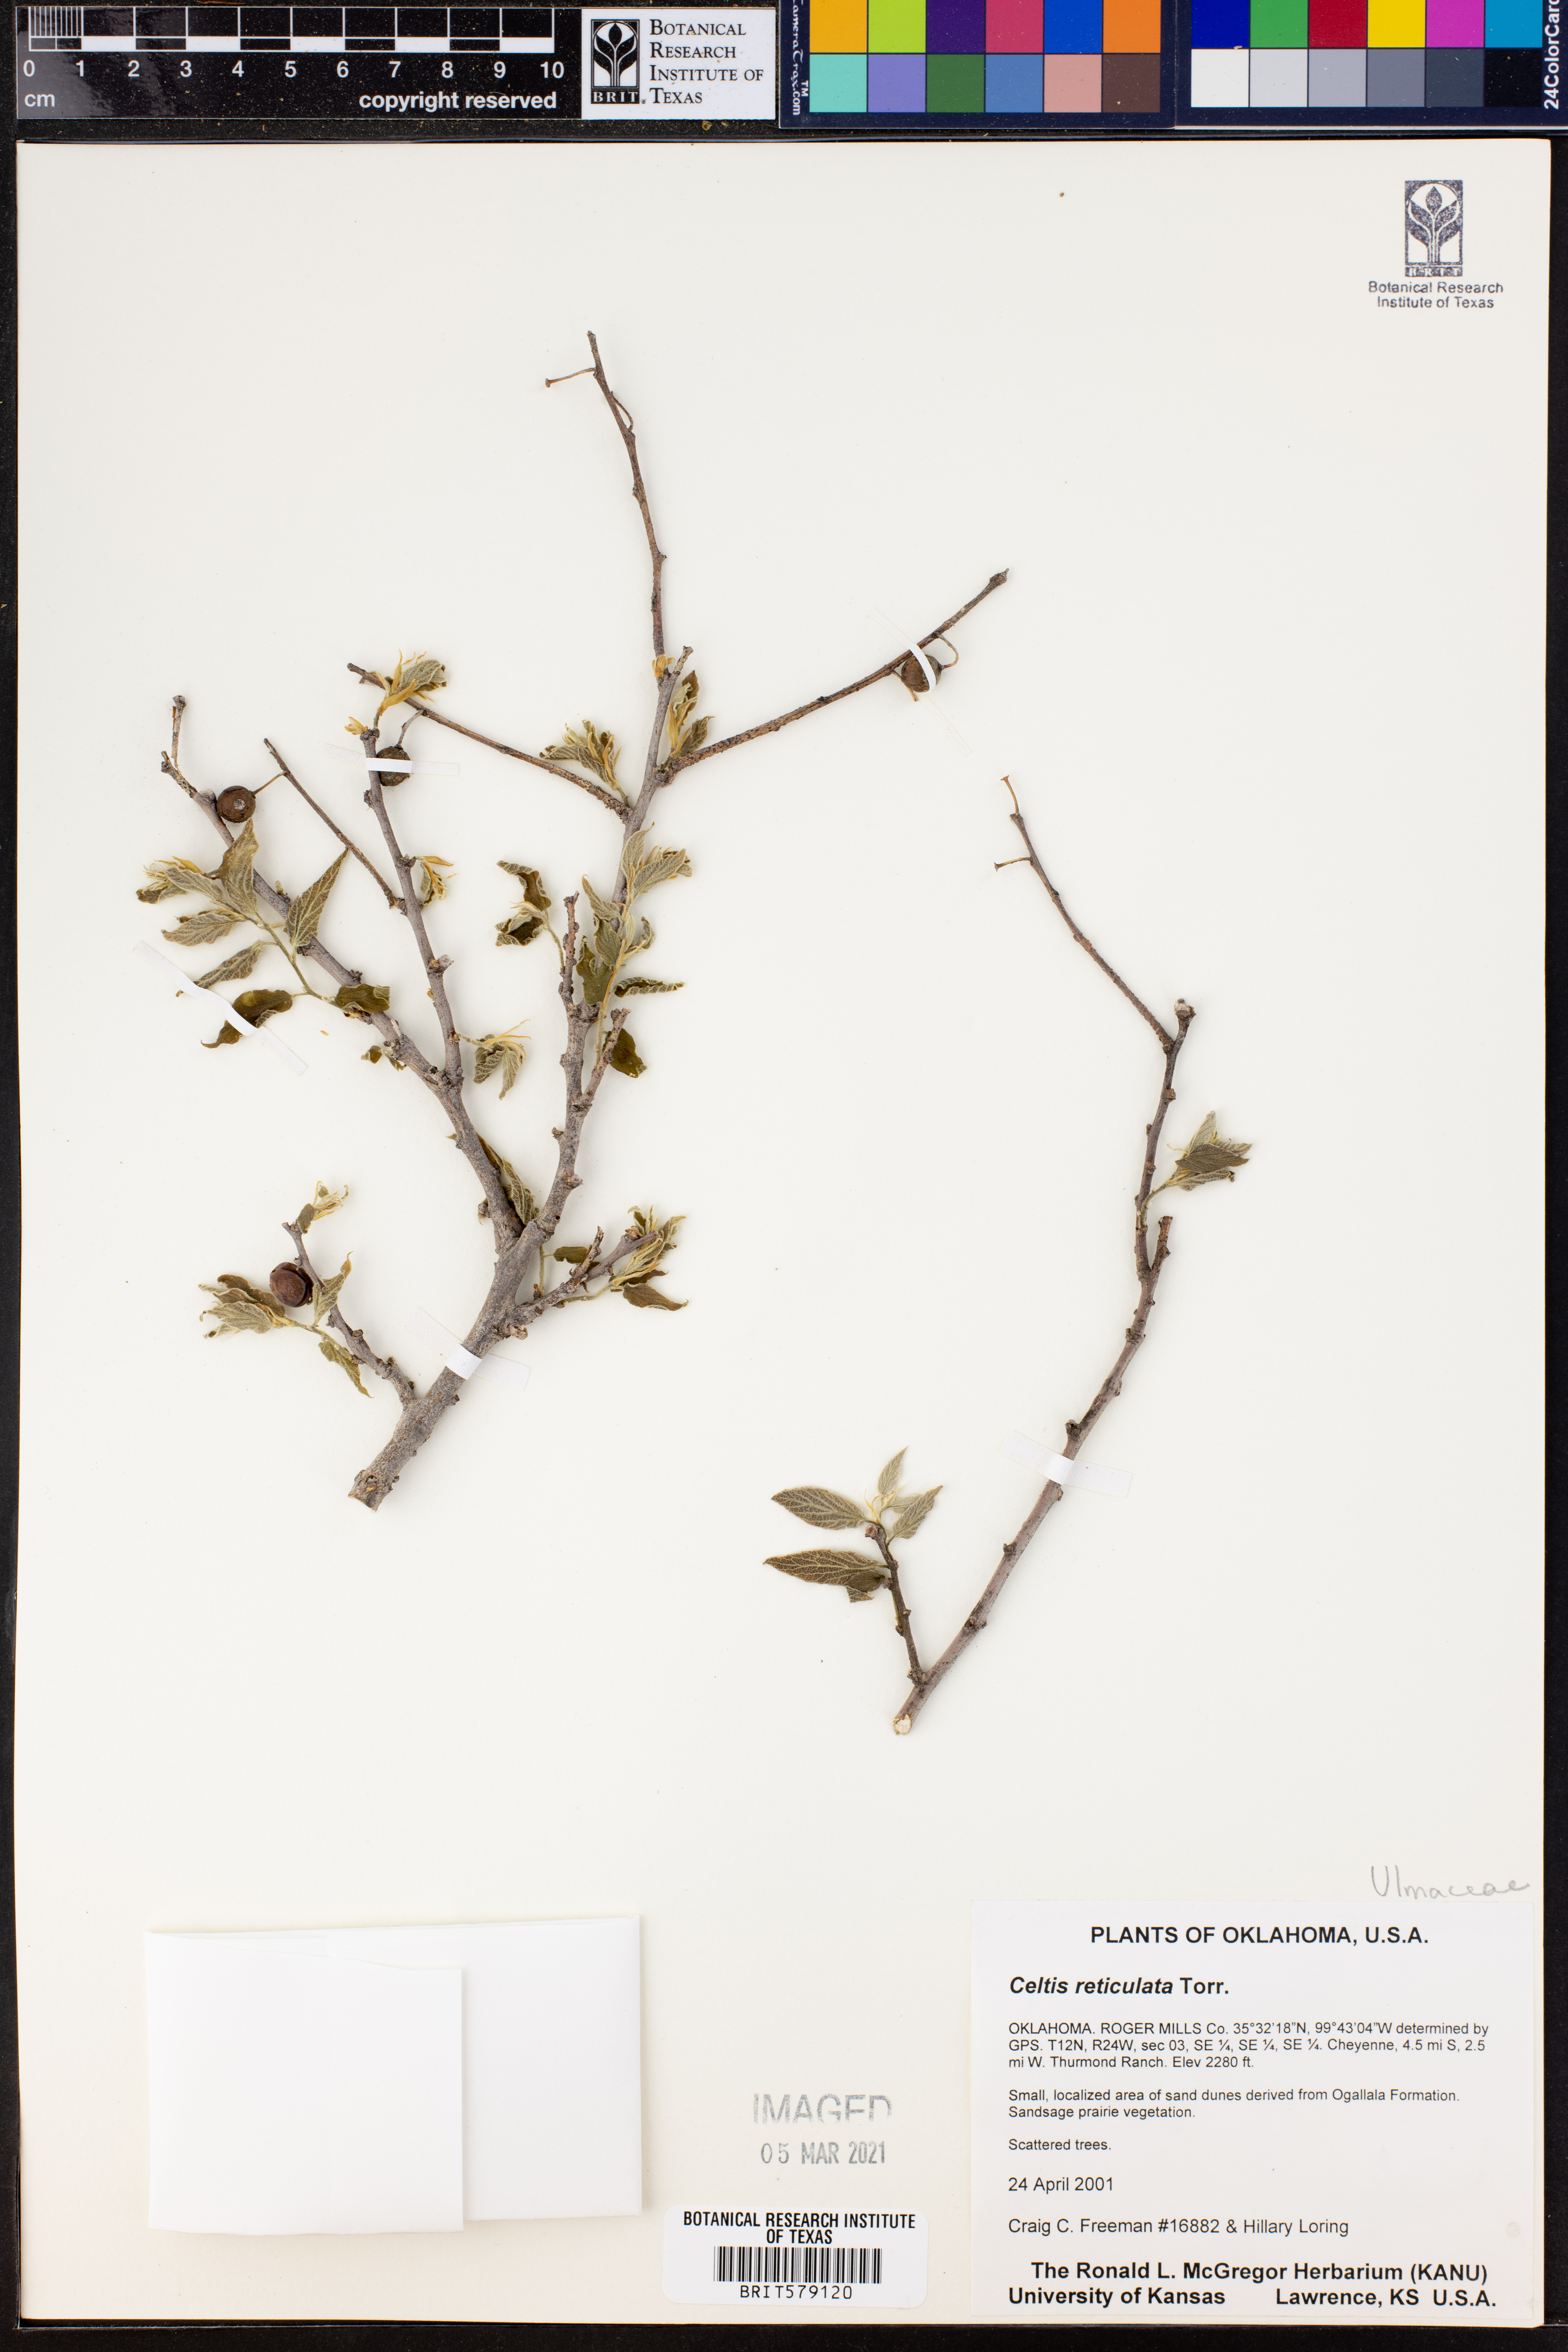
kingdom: Plantae
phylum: Tracheophyta
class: Magnoliopsida
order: Rosales
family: Cannabaceae
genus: Celtis
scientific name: Celtis reticulata
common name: Netleaf hackberry
